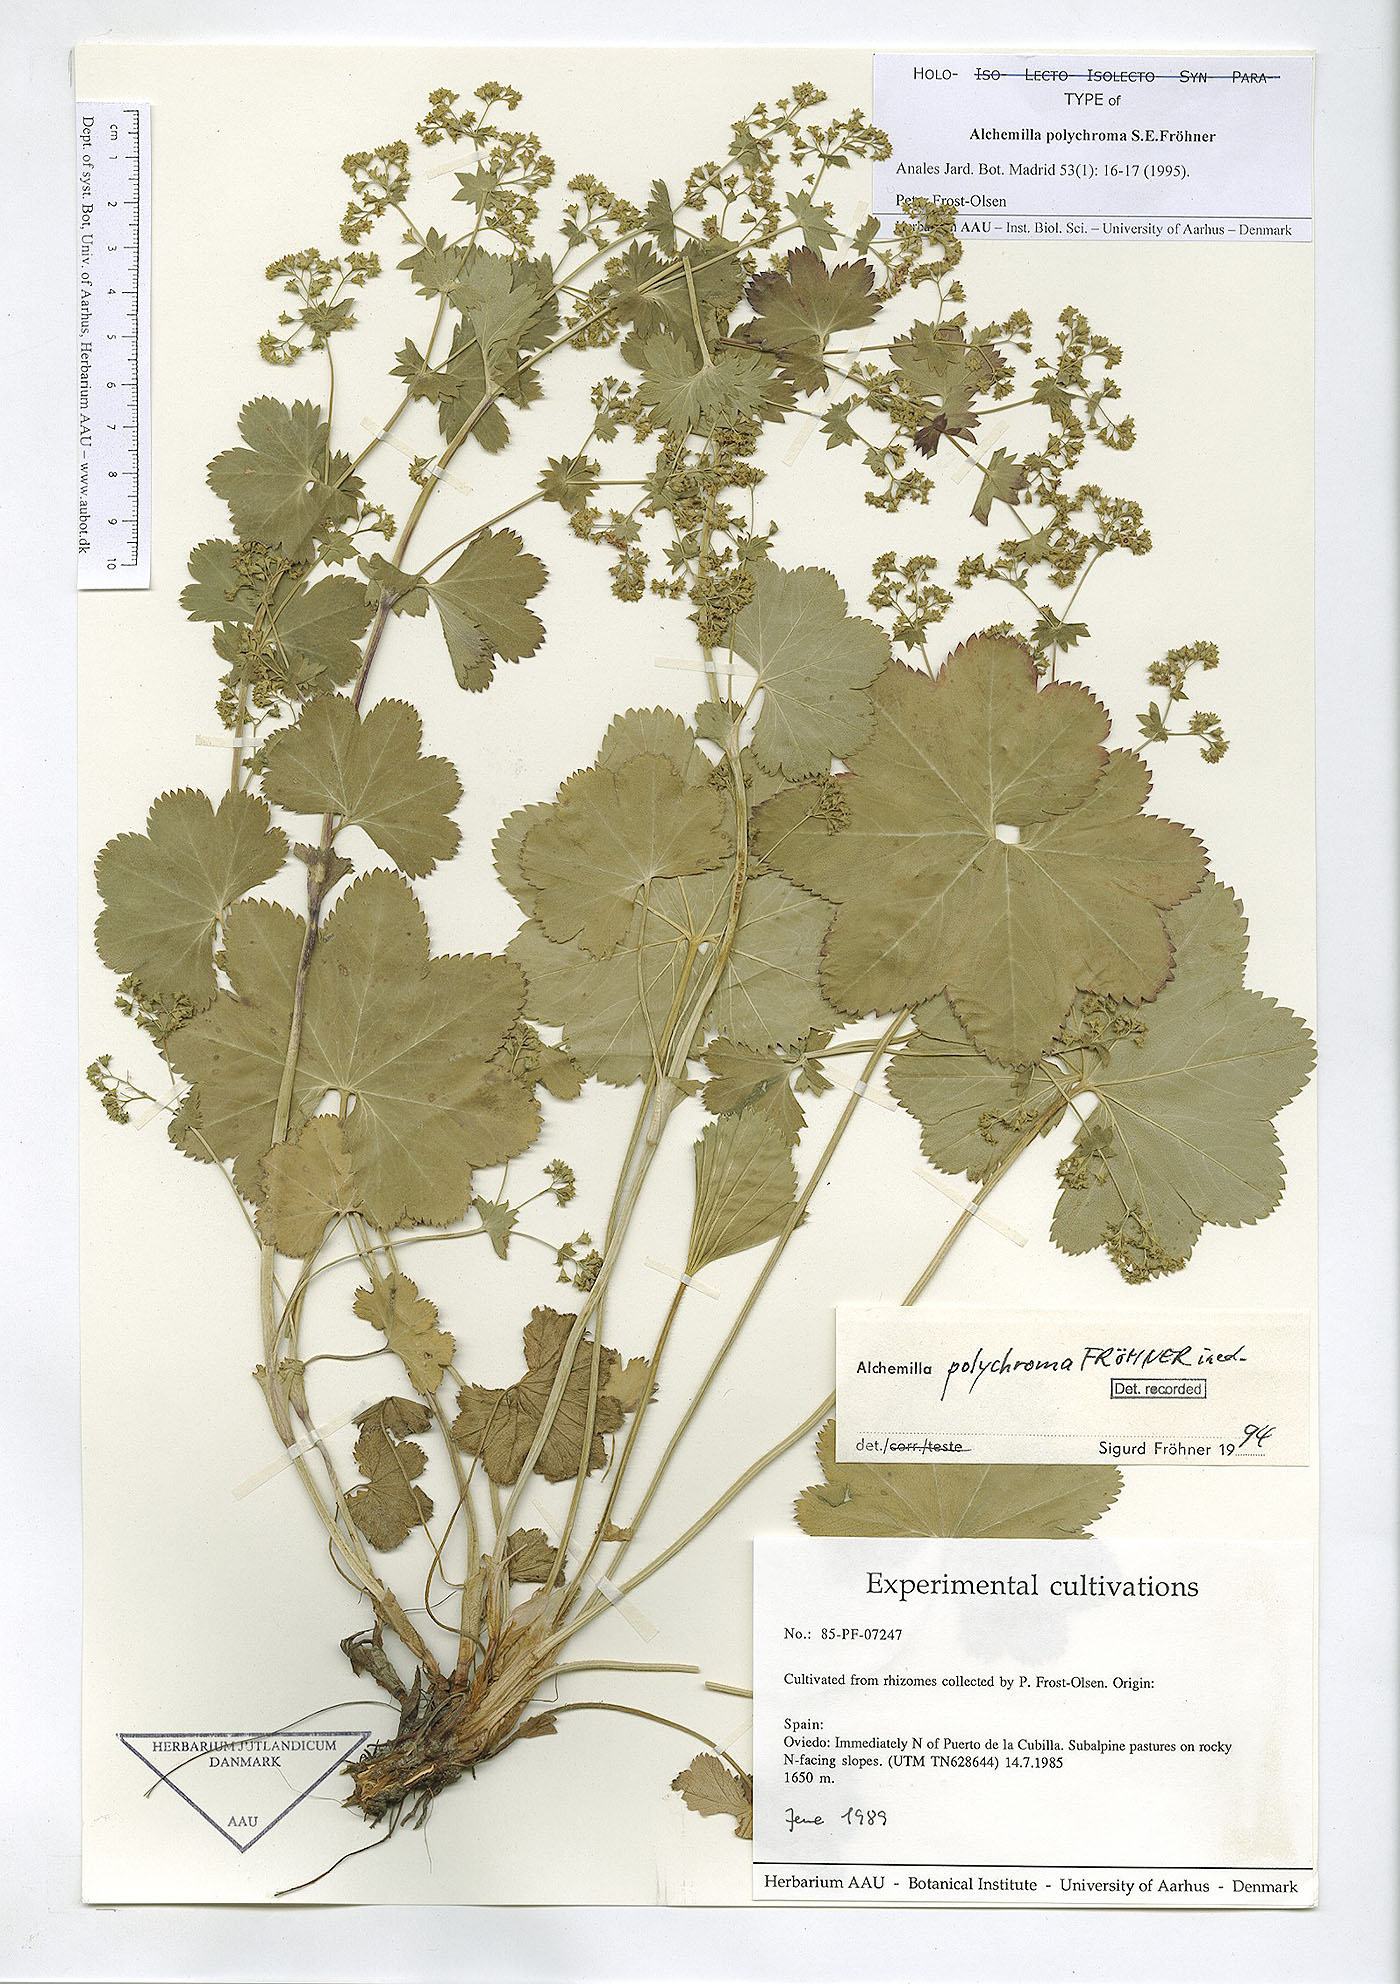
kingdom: Plantae
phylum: Tracheophyta
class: Magnoliopsida
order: Rosales
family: Rosaceae
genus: Alchemilla
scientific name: Alchemilla polychroma
